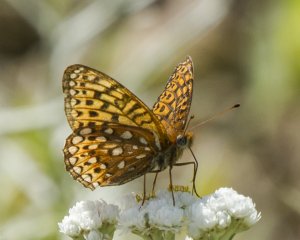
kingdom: Animalia
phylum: Arthropoda
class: Insecta
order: Lepidoptera
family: Nymphalidae
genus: Speyeria
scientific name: Speyeria atlantis
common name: Atlantis Fritillary
